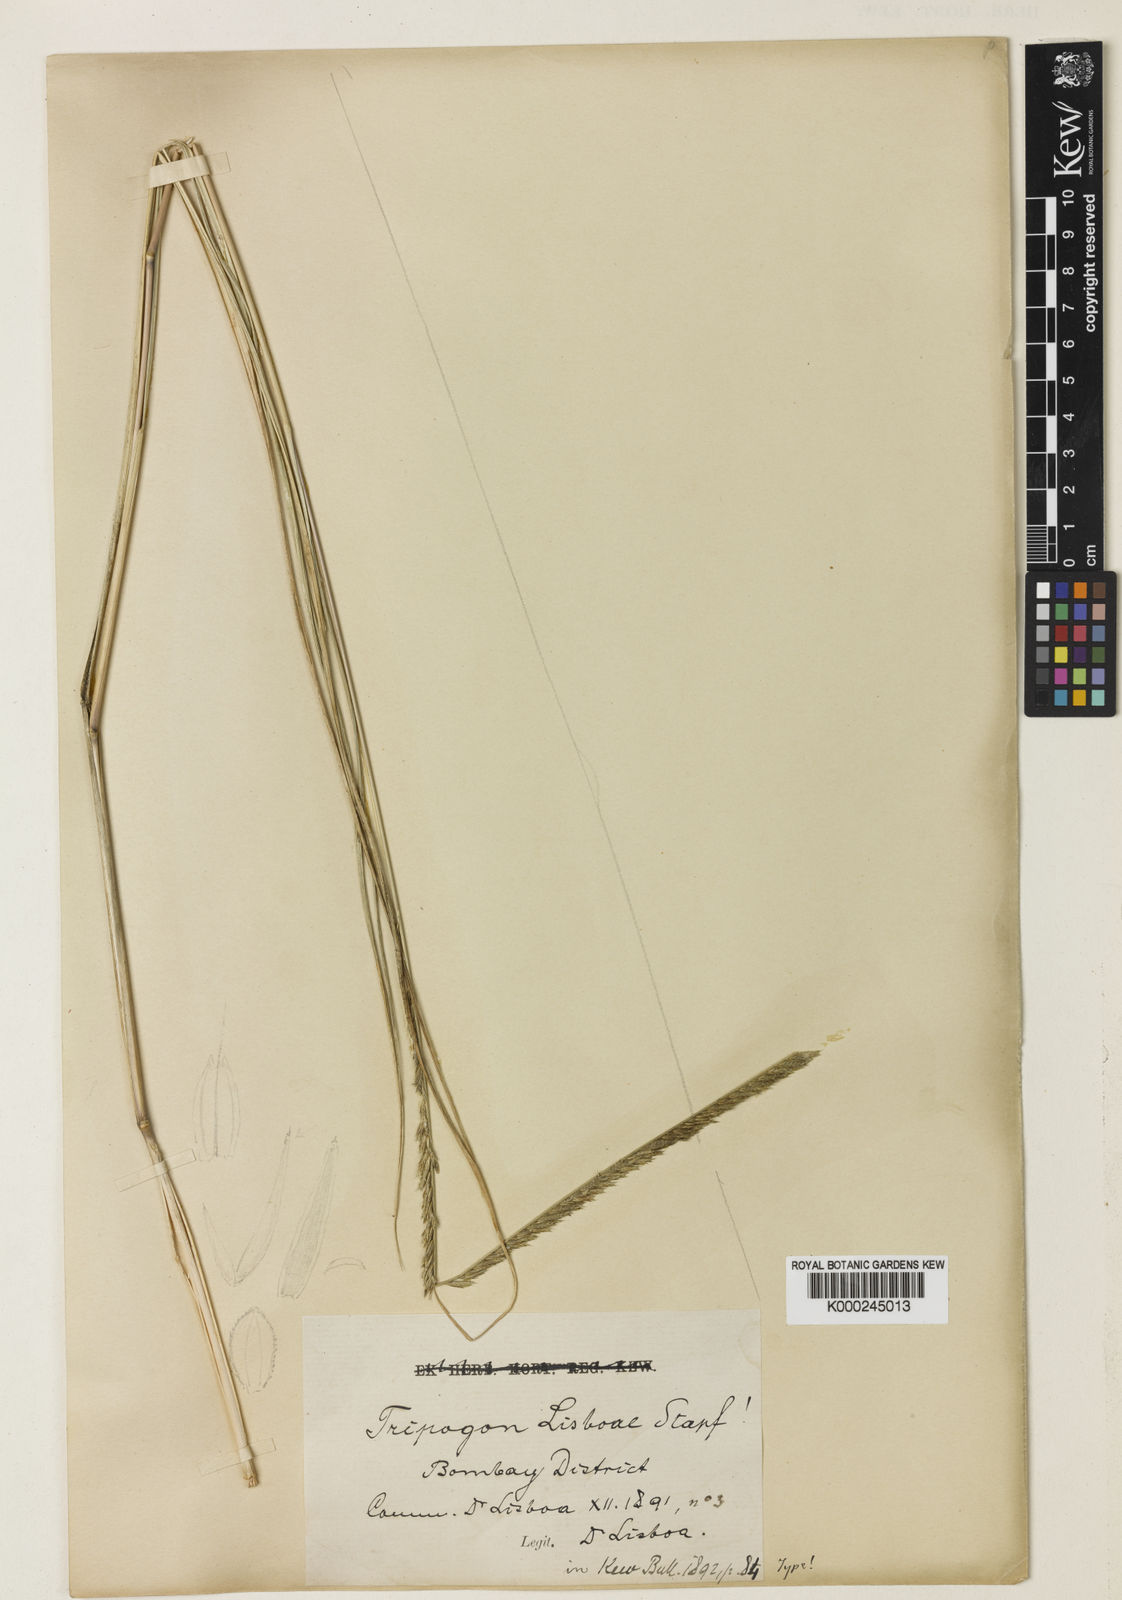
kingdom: Plantae
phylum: Tracheophyta
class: Liliopsida
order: Poales
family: Poaceae
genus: Tripogon
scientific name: Tripogon lisboae
